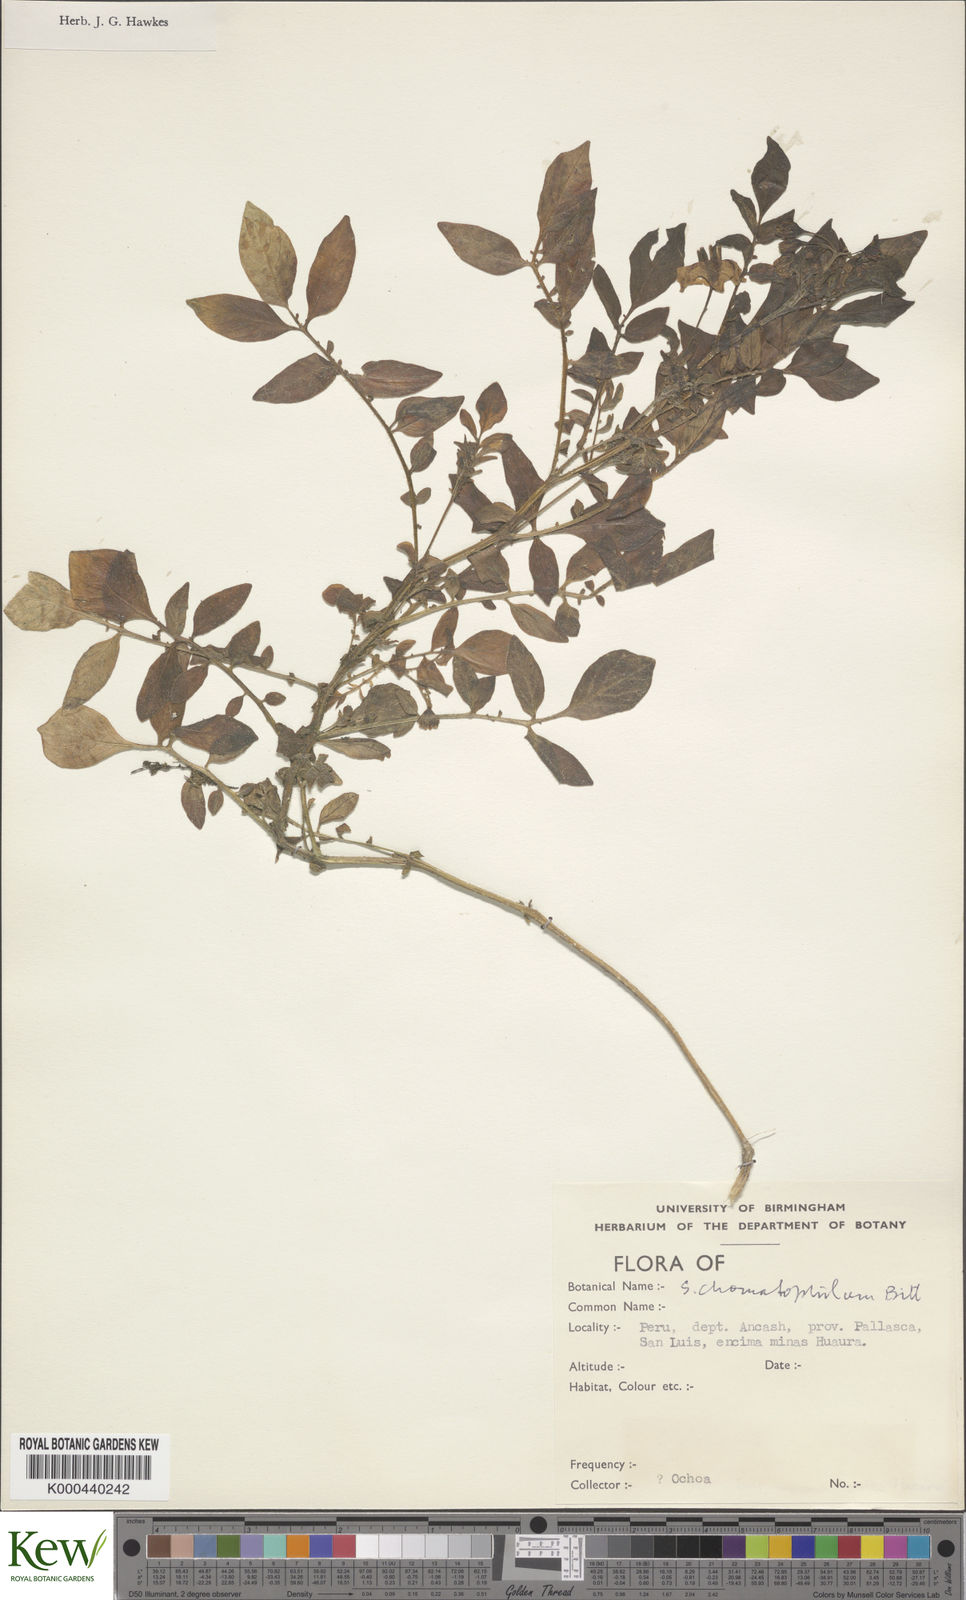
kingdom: Plantae
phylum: Tracheophyta
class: Magnoliopsida
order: Solanales
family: Solanaceae
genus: Solanum
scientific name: Solanum chomatophilum
